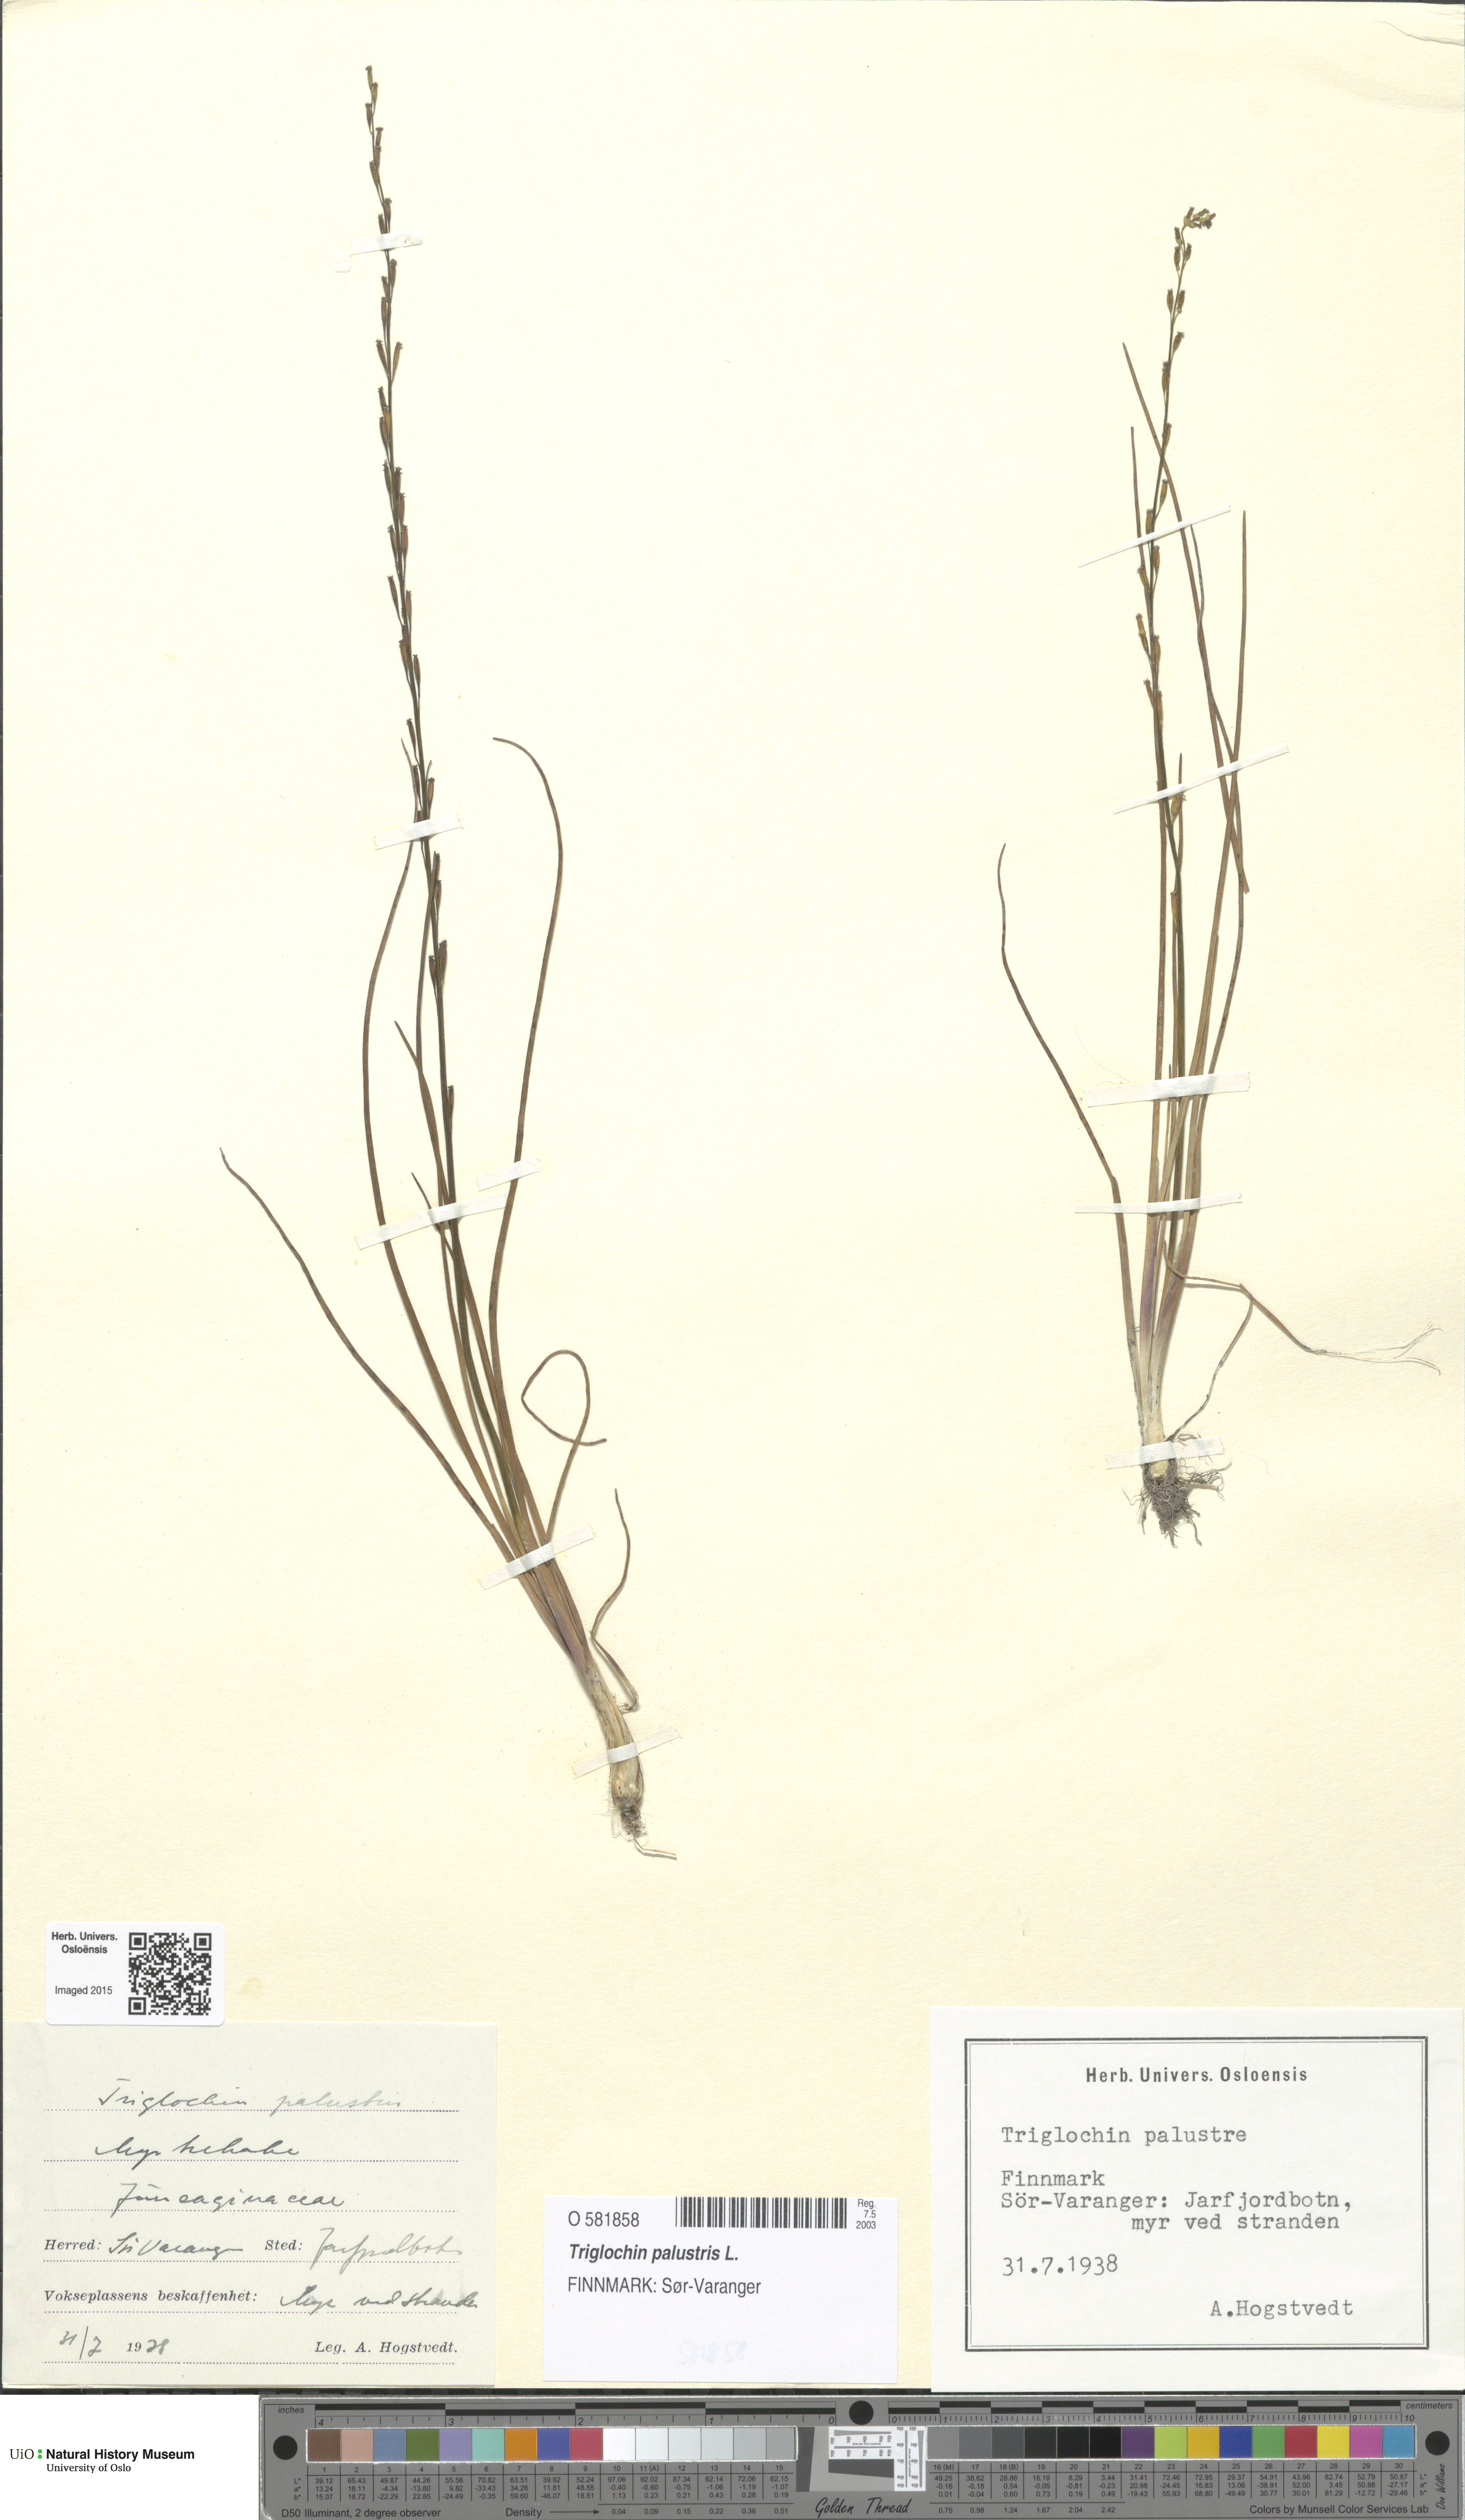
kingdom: Plantae
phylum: Tracheophyta
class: Liliopsida
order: Alismatales
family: Juncaginaceae
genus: Triglochin
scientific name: Triglochin palustris
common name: Marsh arrowgrass
